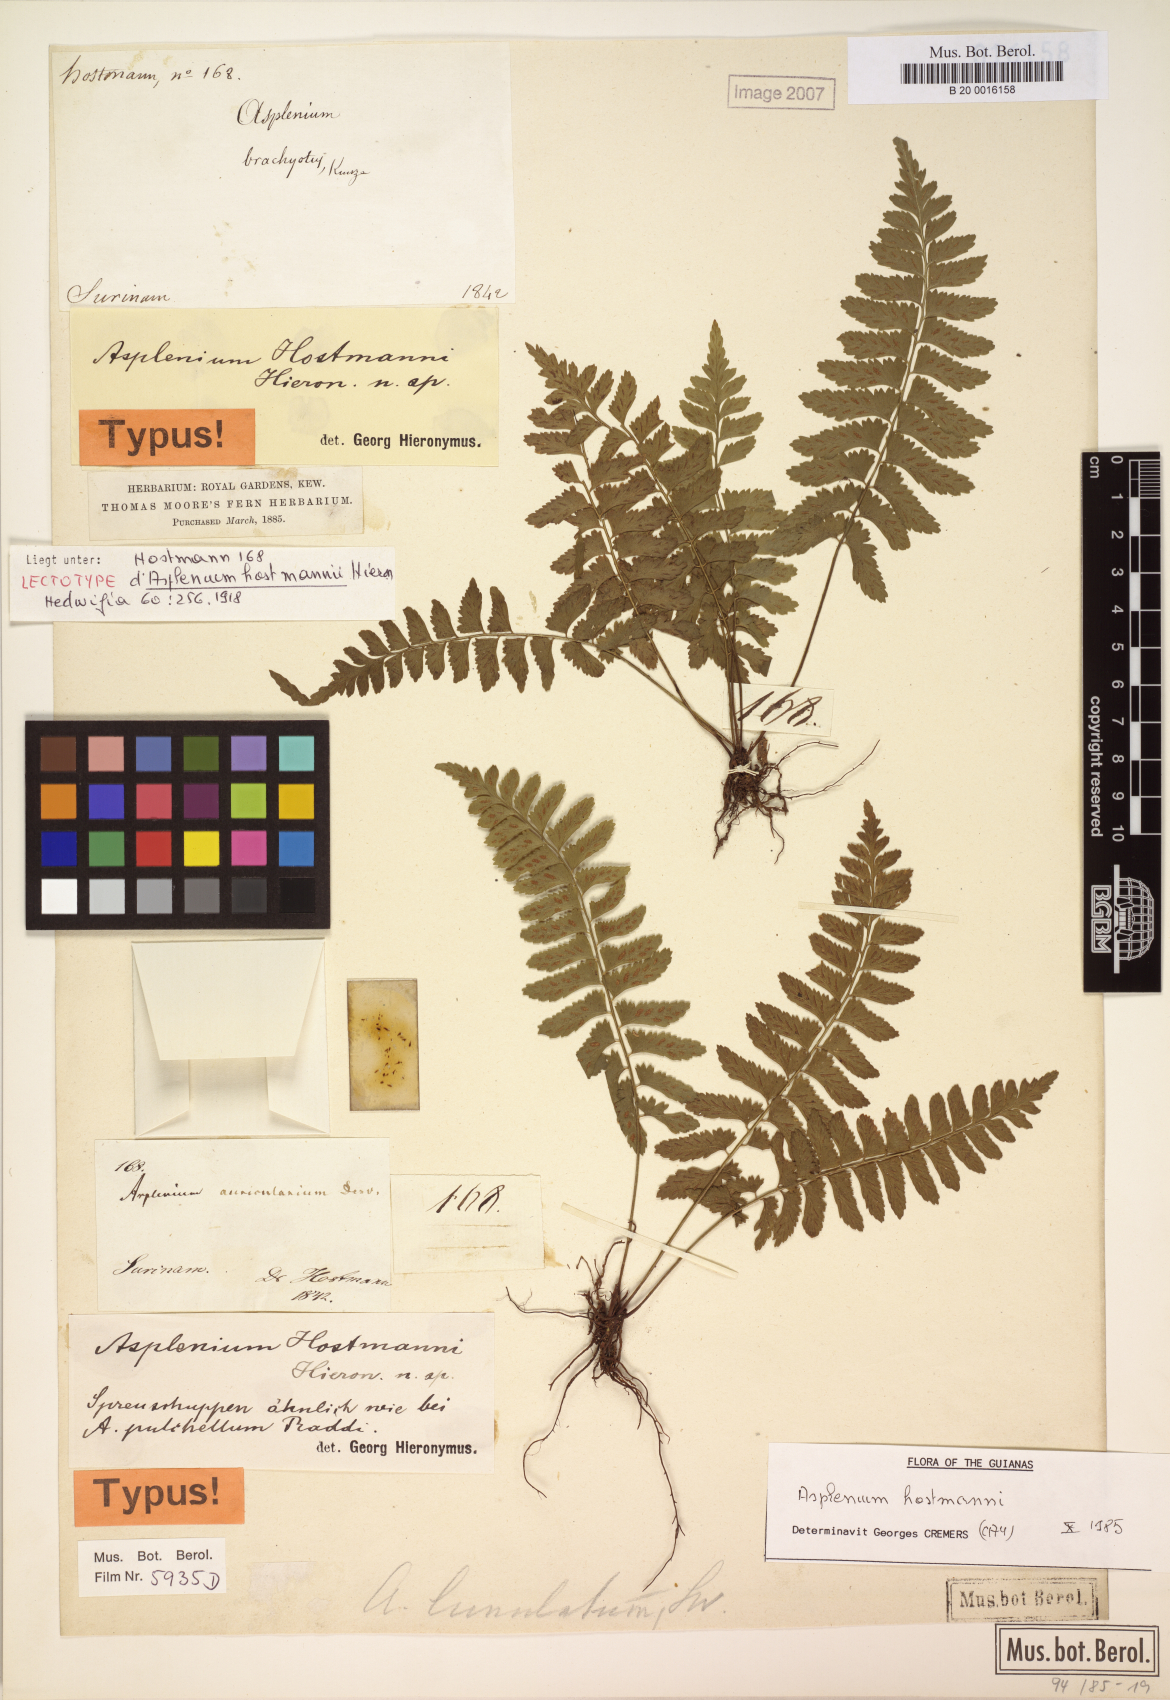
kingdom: Plantae
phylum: Tracheophyta
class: Polypodiopsida
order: Polypodiales
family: Aspleniaceae
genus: Asplenium
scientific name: Asplenium hostmannii
